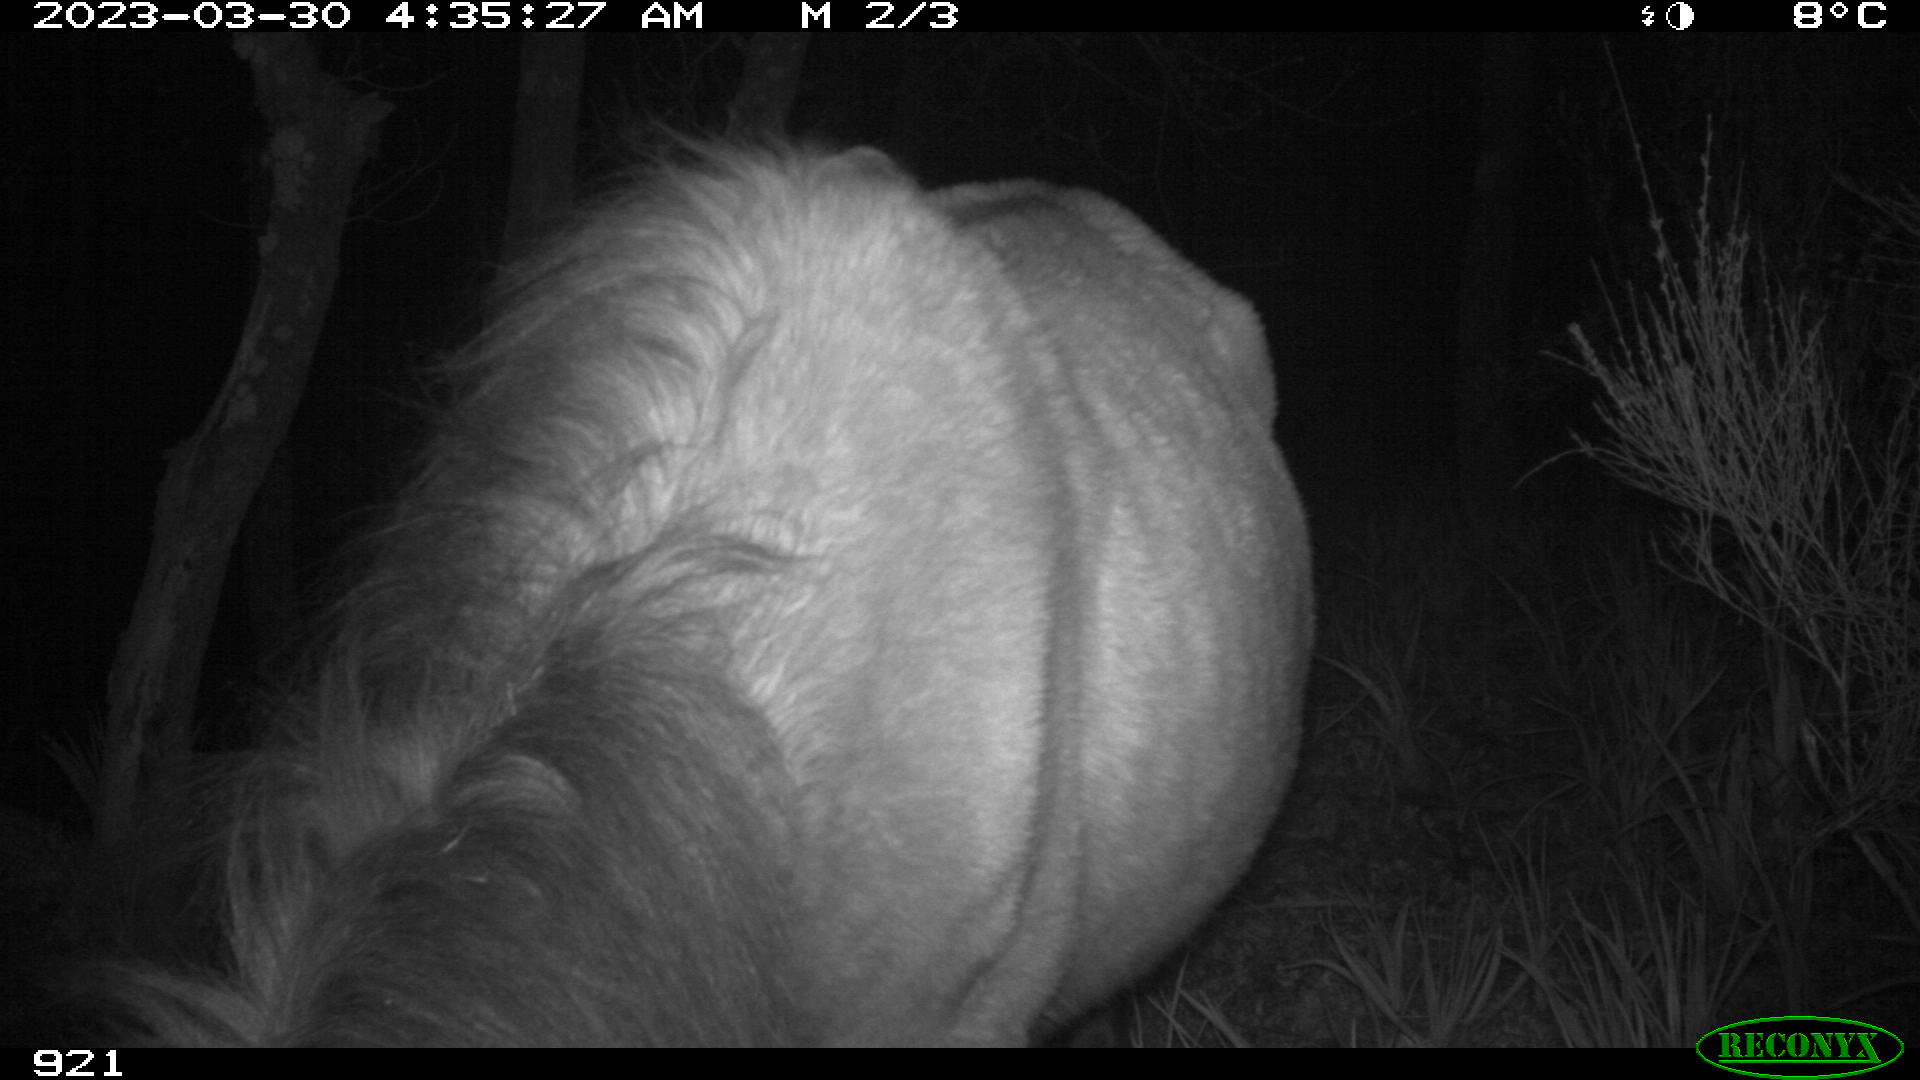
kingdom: Animalia
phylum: Chordata
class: Mammalia
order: Perissodactyla
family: Equidae
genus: Equus
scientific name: Equus caballus
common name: Horse
